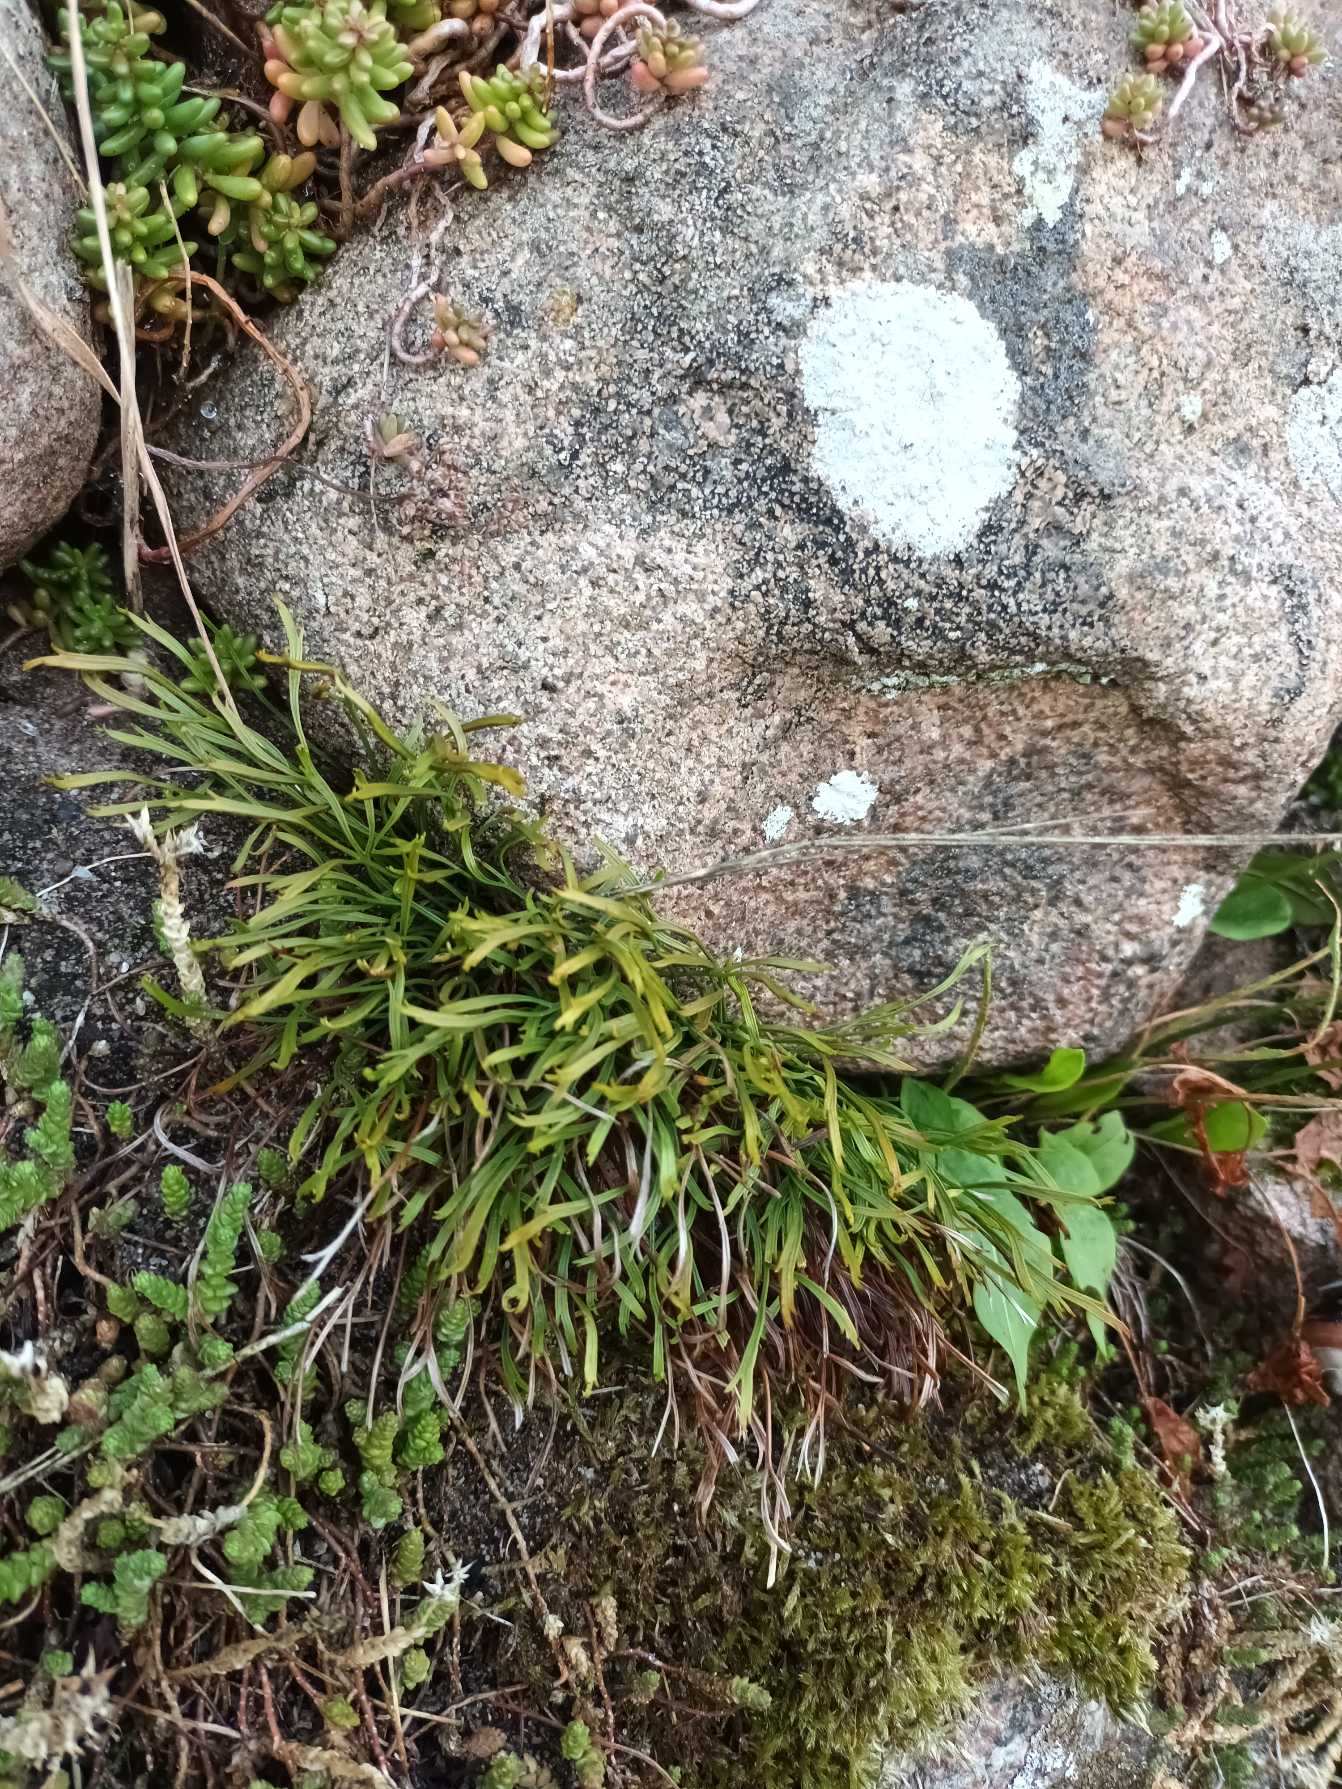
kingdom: Plantae
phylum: Tracheophyta
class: Polypodiopsida
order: Polypodiales
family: Aspleniaceae
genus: Asplenium
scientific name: Asplenium septentrionale
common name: Nordisk radeløv
